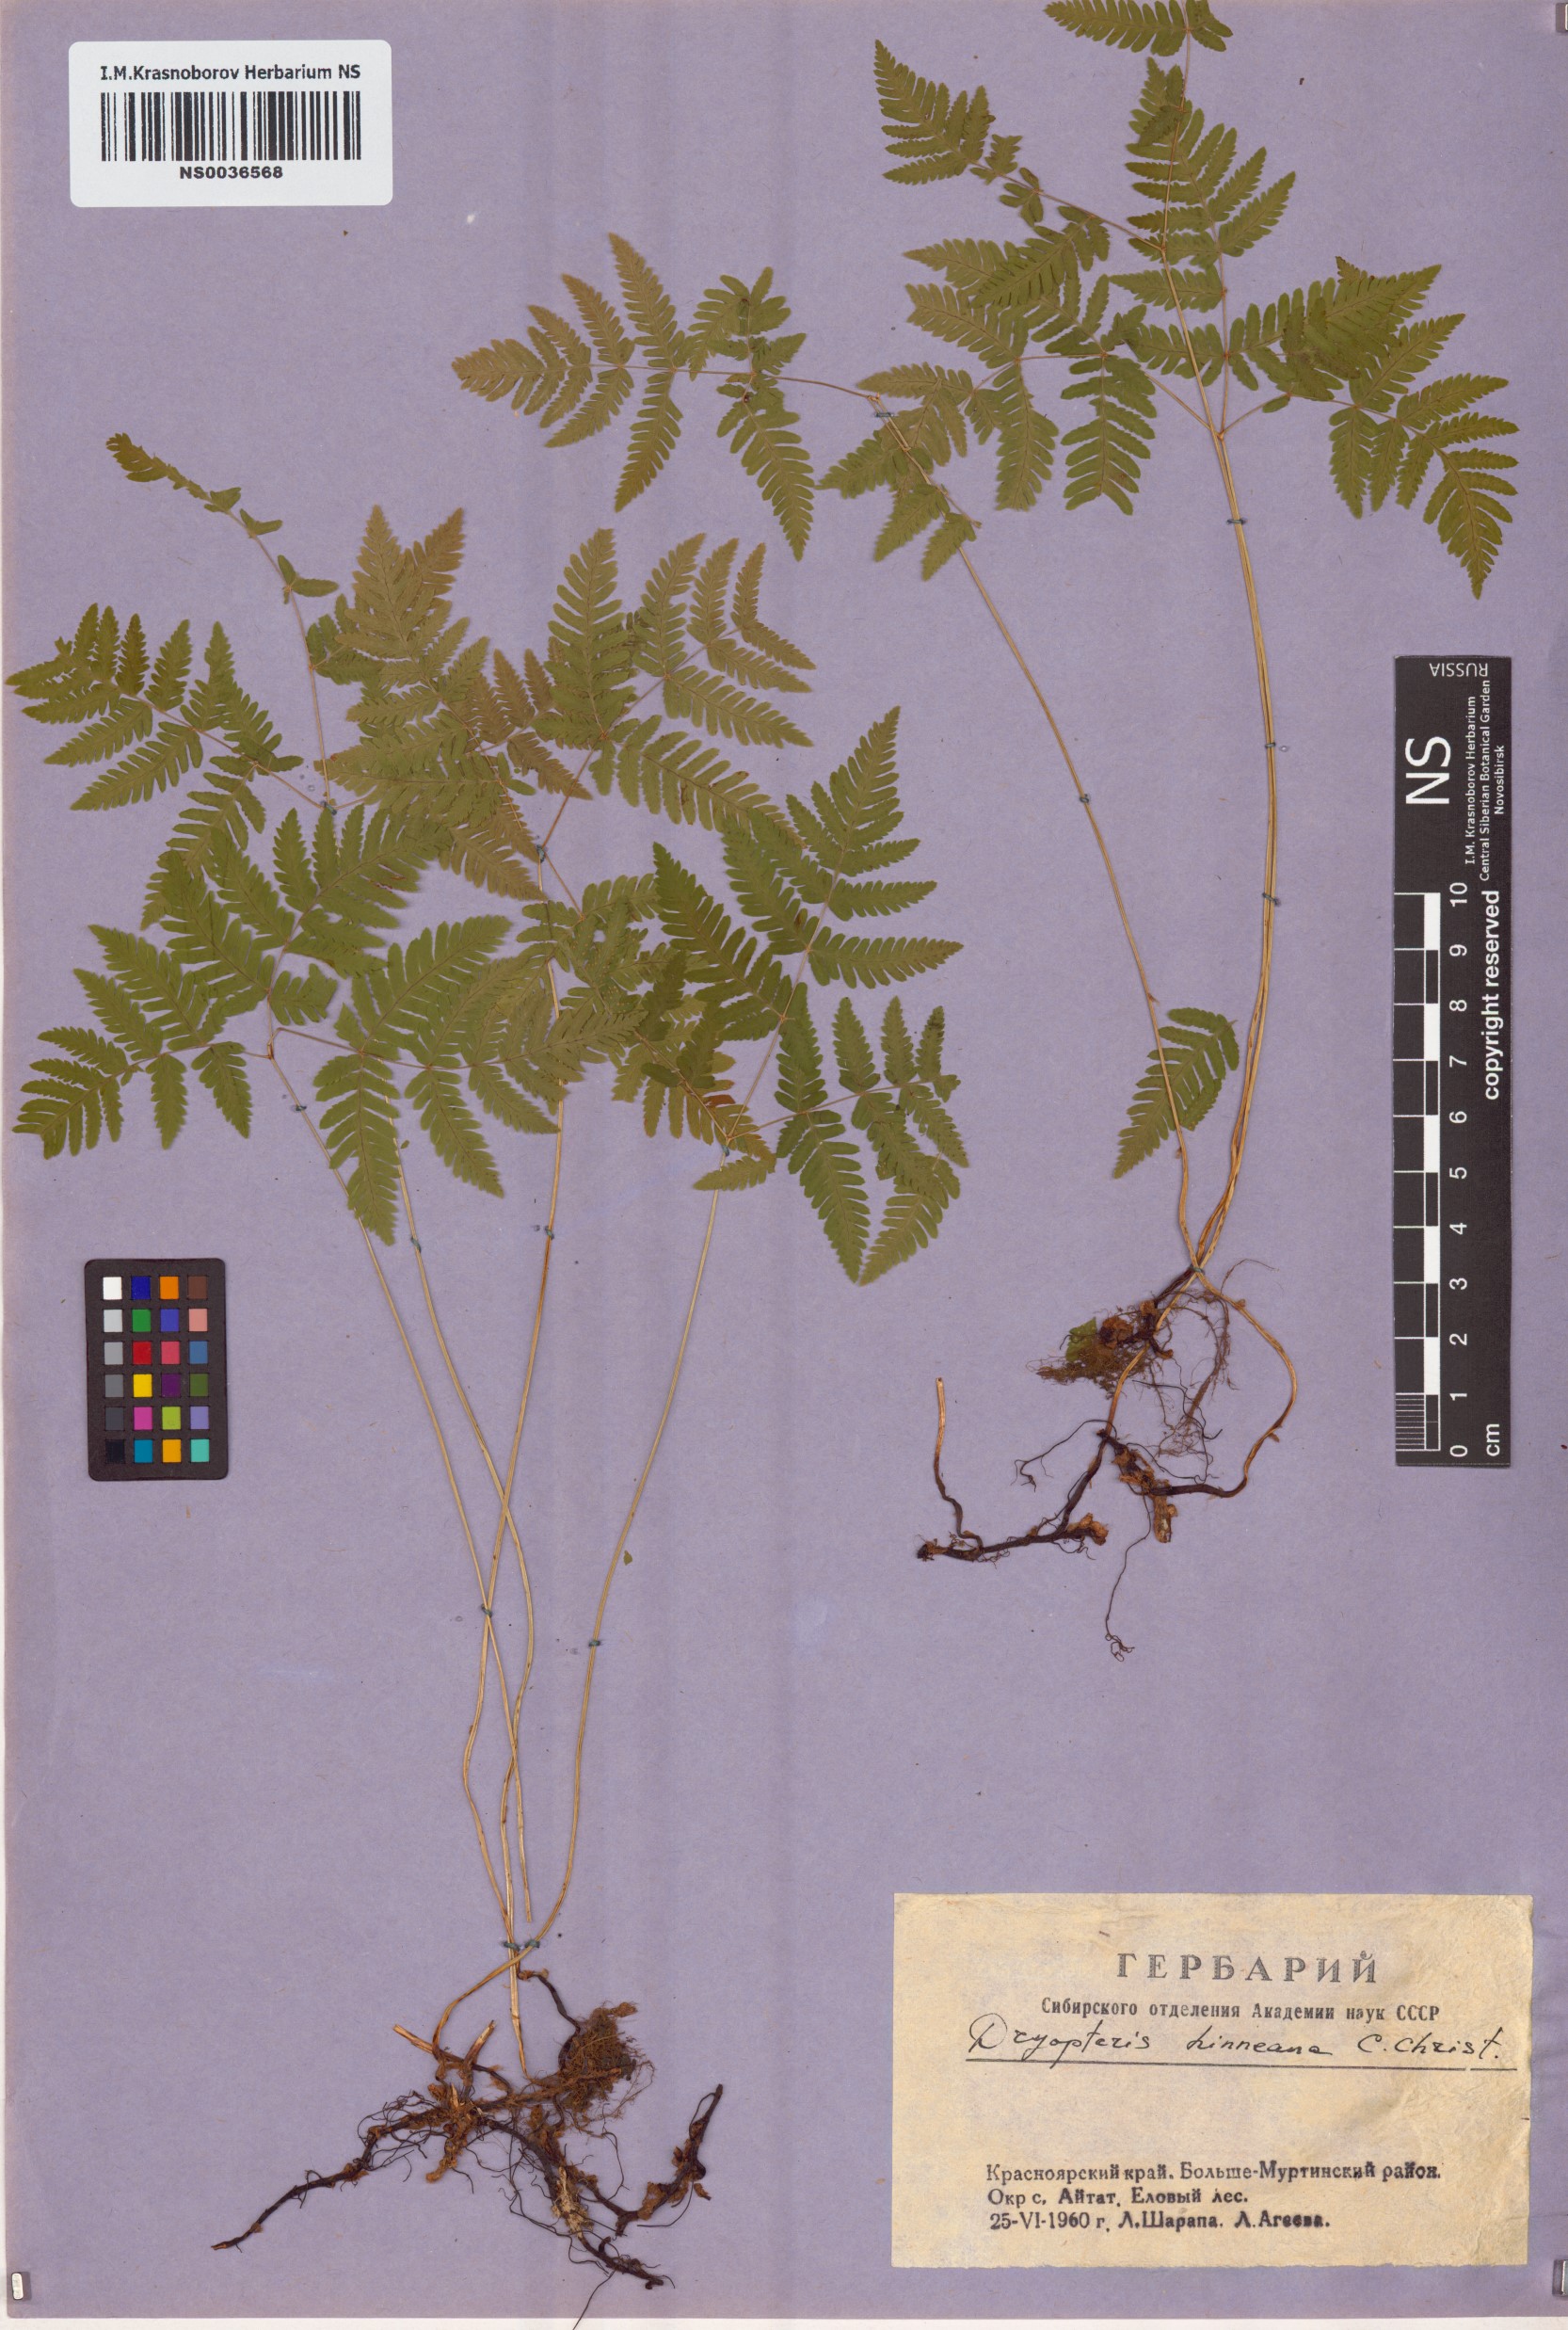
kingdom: Plantae
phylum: Tracheophyta
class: Polypodiopsida
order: Polypodiales
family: Cystopteridaceae
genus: Gymnocarpium
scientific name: Gymnocarpium dryopteris
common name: Oak fern
